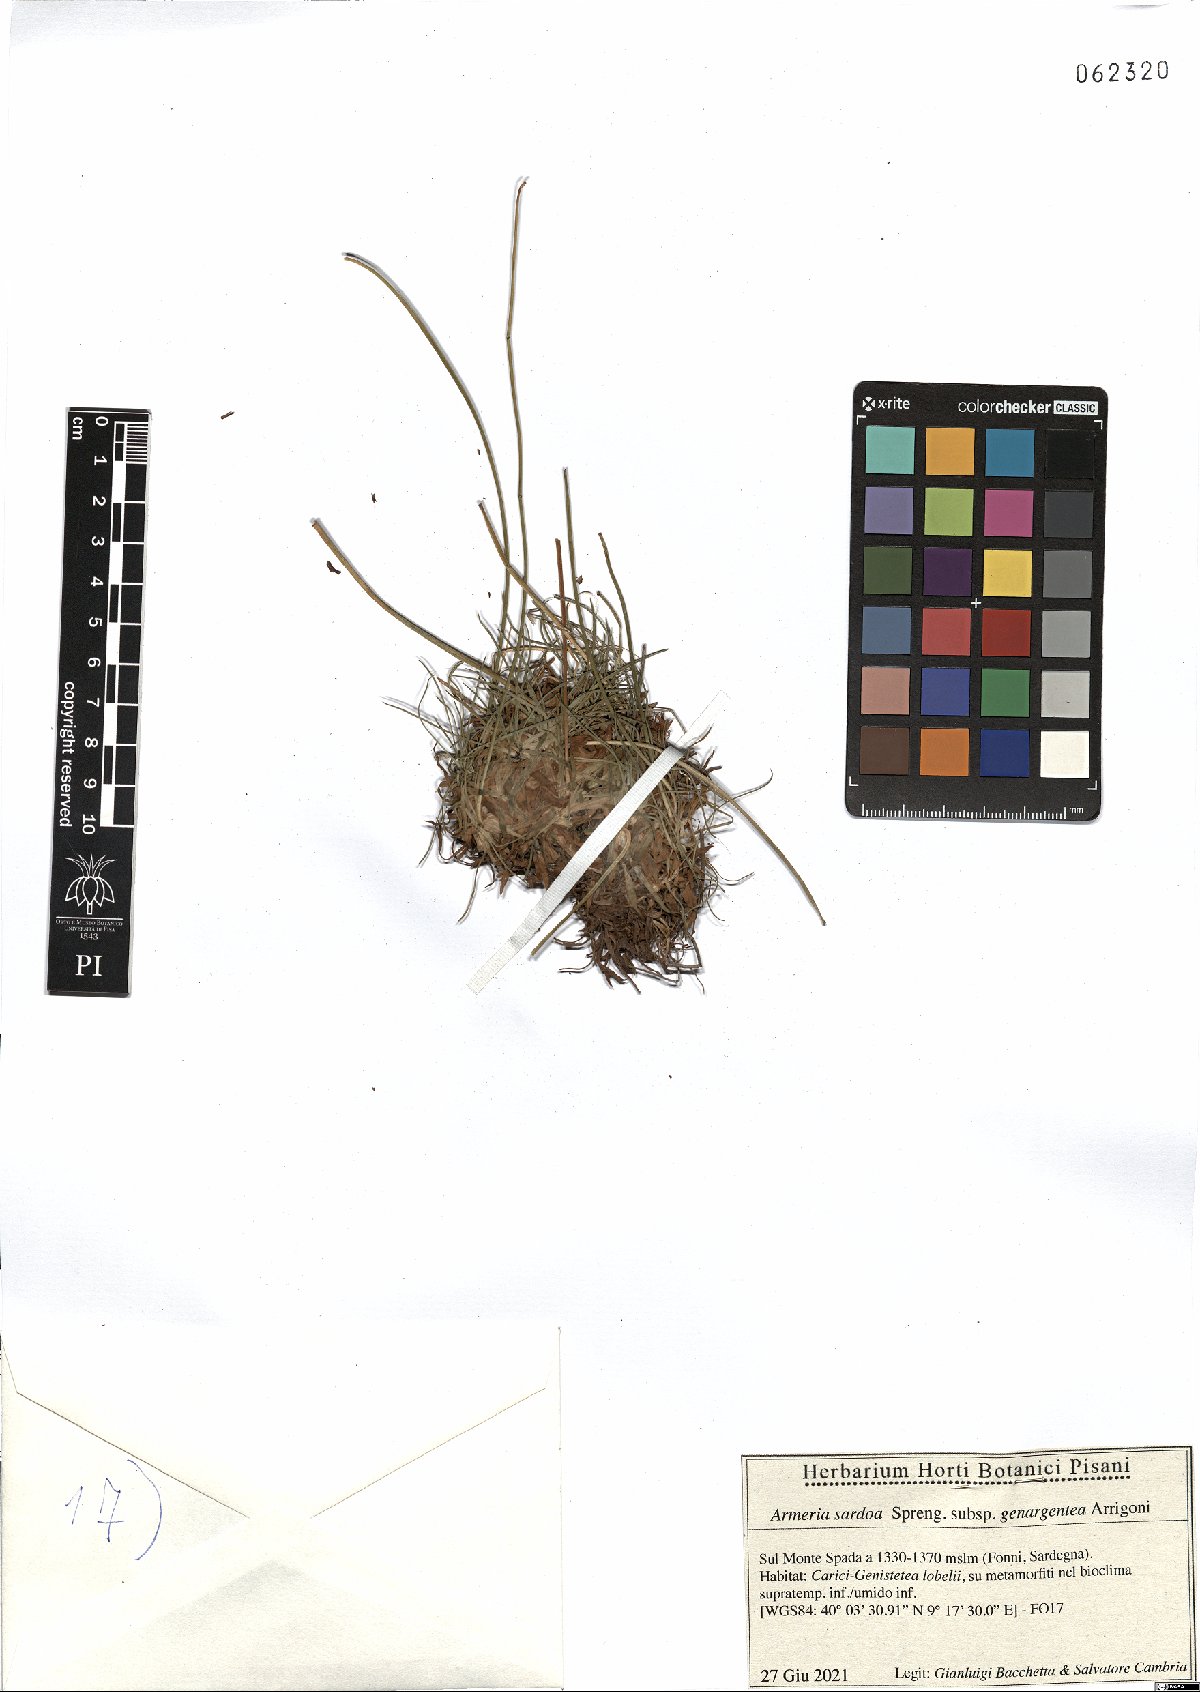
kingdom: Plantae
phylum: Tracheophyta
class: Magnoliopsida
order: Caryophyllales
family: Plumbaginaceae
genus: Armeria
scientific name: Armeria sardoa
